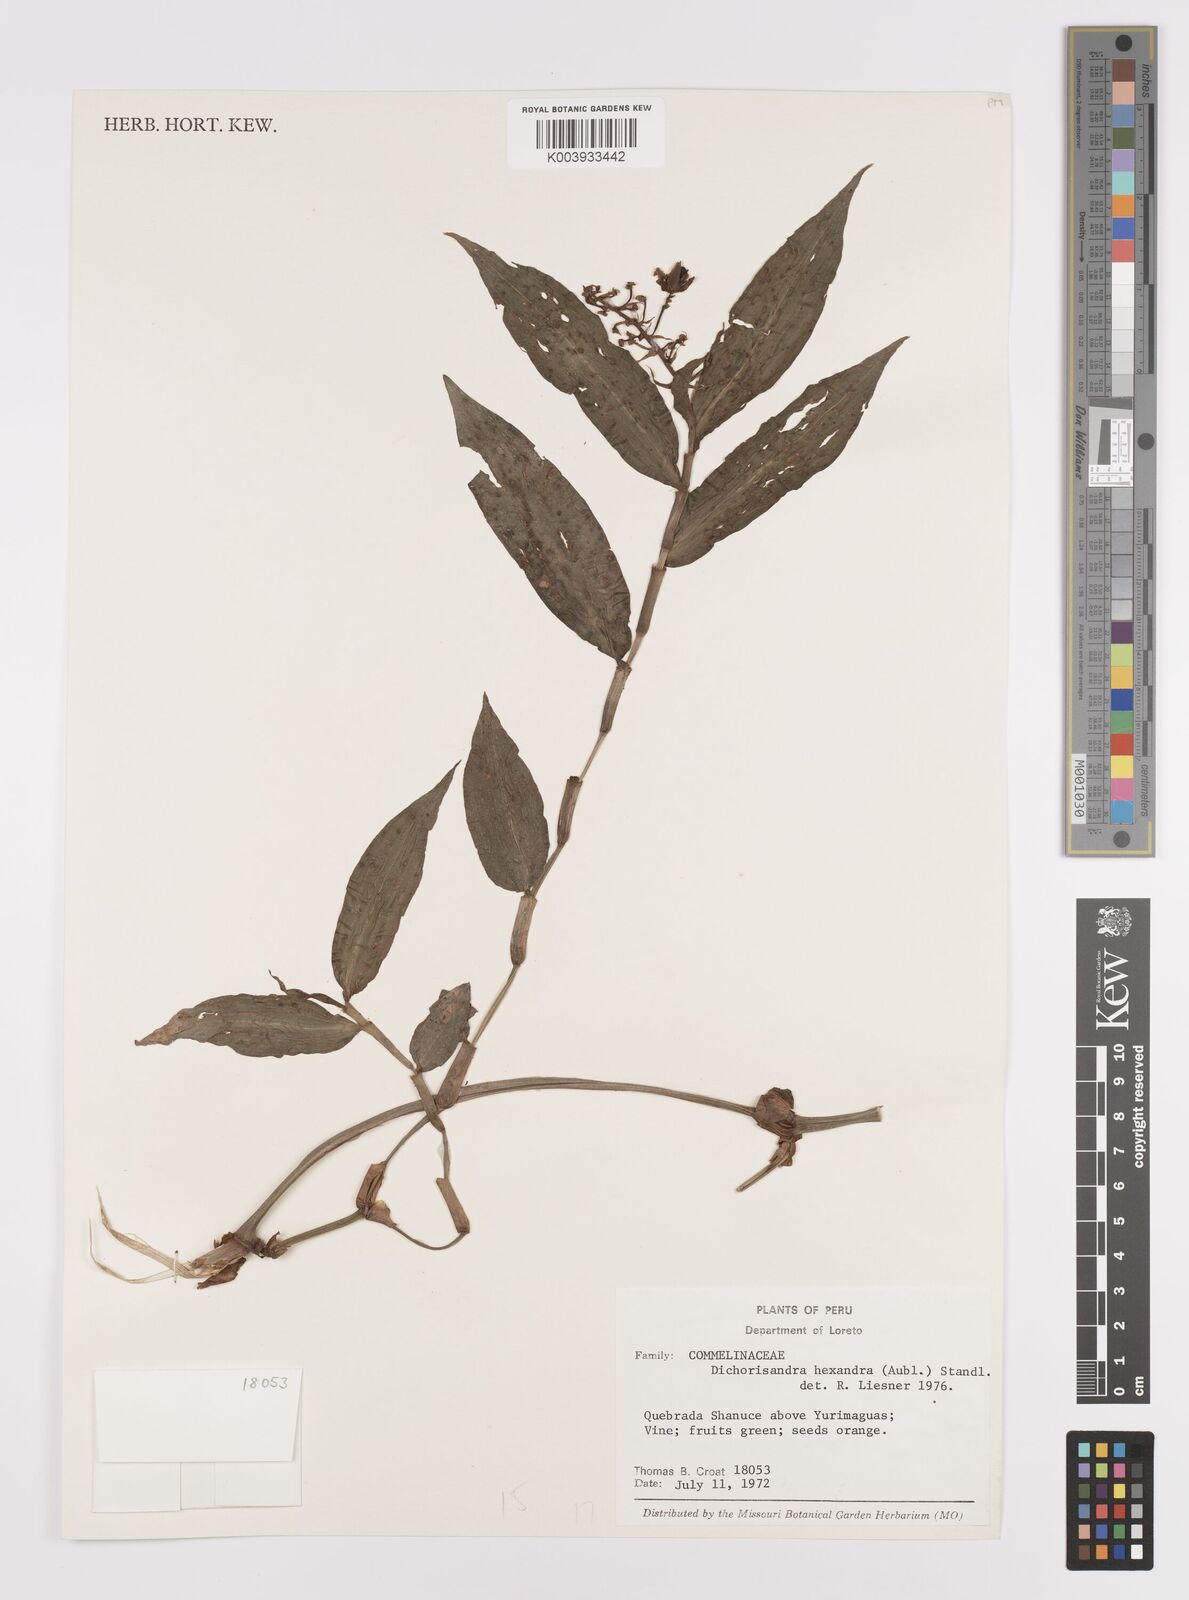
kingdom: Plantae
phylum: Tracheophyta
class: Liliopsida
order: Commelinales
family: Commelinaceae
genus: Dichorisandra
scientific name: Dichorisandra hexandra
